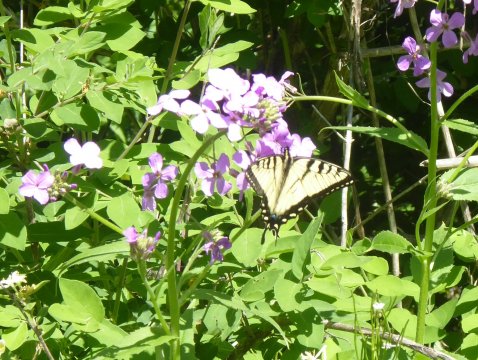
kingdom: Animalia
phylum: Arthropoda
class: Insecta
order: Lepidoptera
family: Papilionidae
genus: Pterourus
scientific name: Pterourus canadensis
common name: Canadian Tiger Swallowtail
